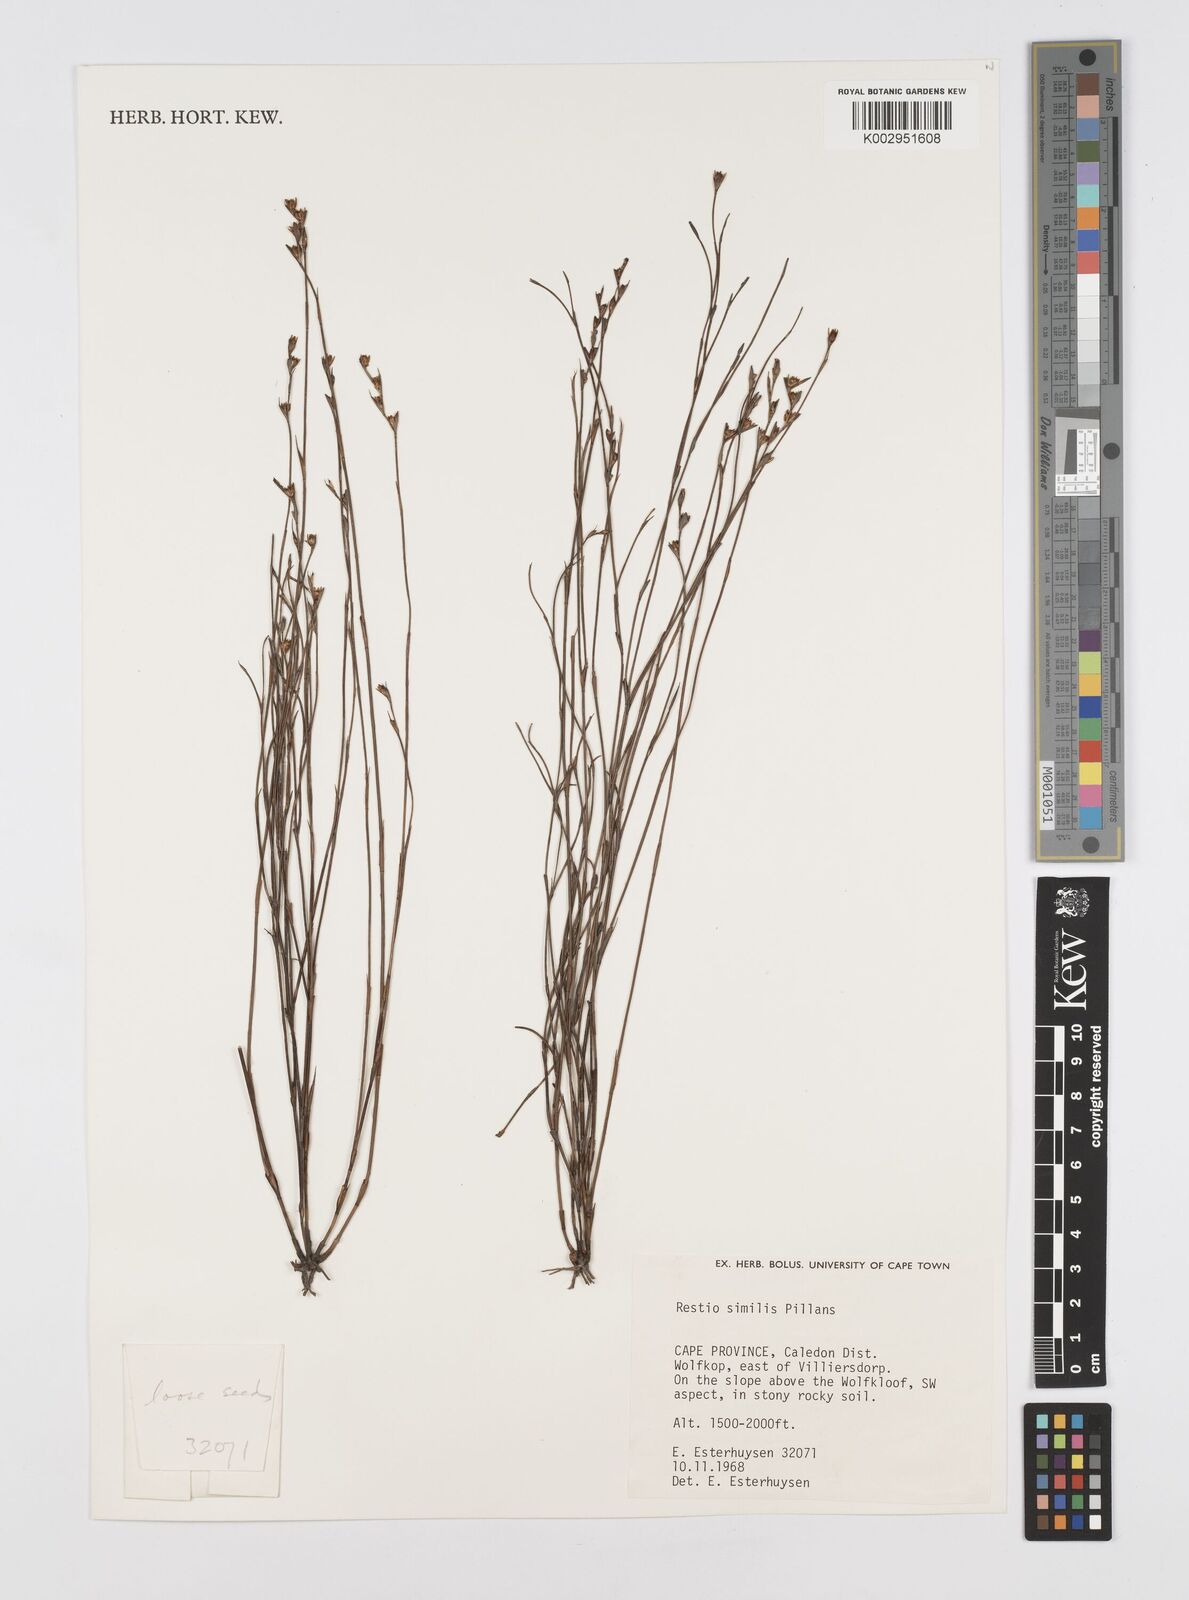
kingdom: Plantae
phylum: Tracheophyta
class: Liliopsida
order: Poales
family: Restionaceae
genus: Restio
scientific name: Restio similis
